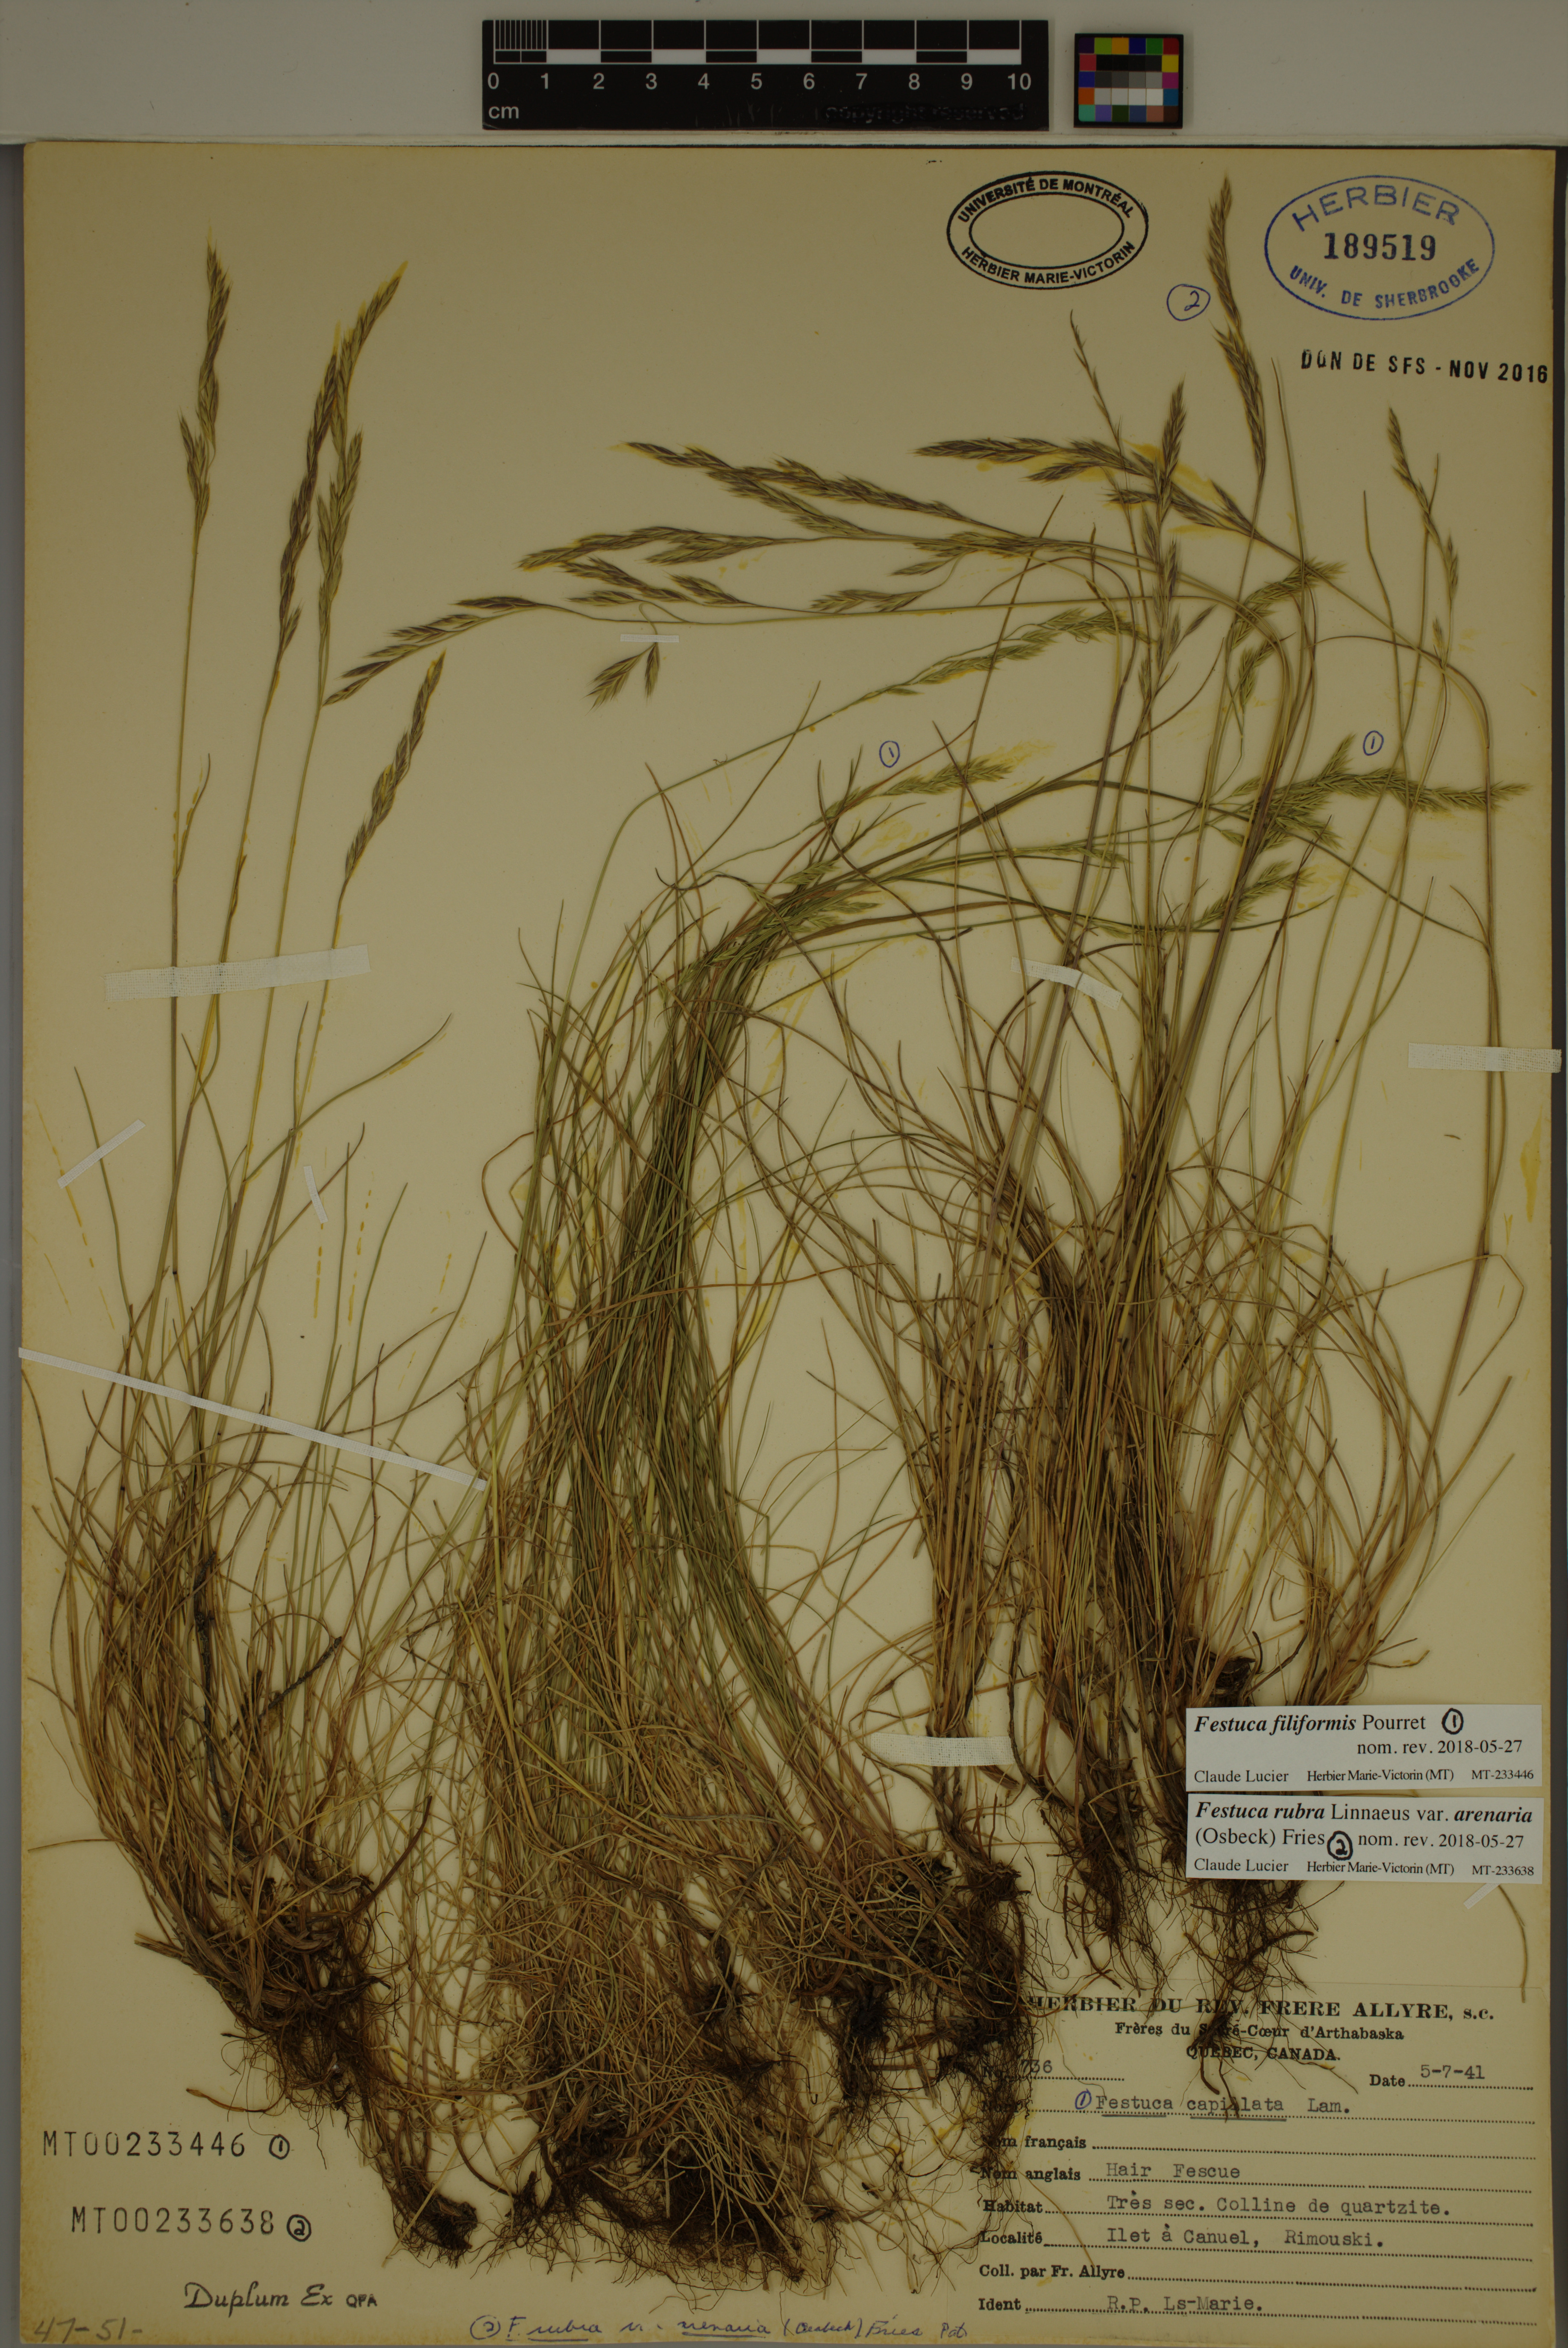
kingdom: Plantae
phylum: Tracheophyta
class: Liliopsida
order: Poales
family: Poaceae
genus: Festuca
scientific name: Festuca filiformis
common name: Fine-leaved sheep's-fescue
